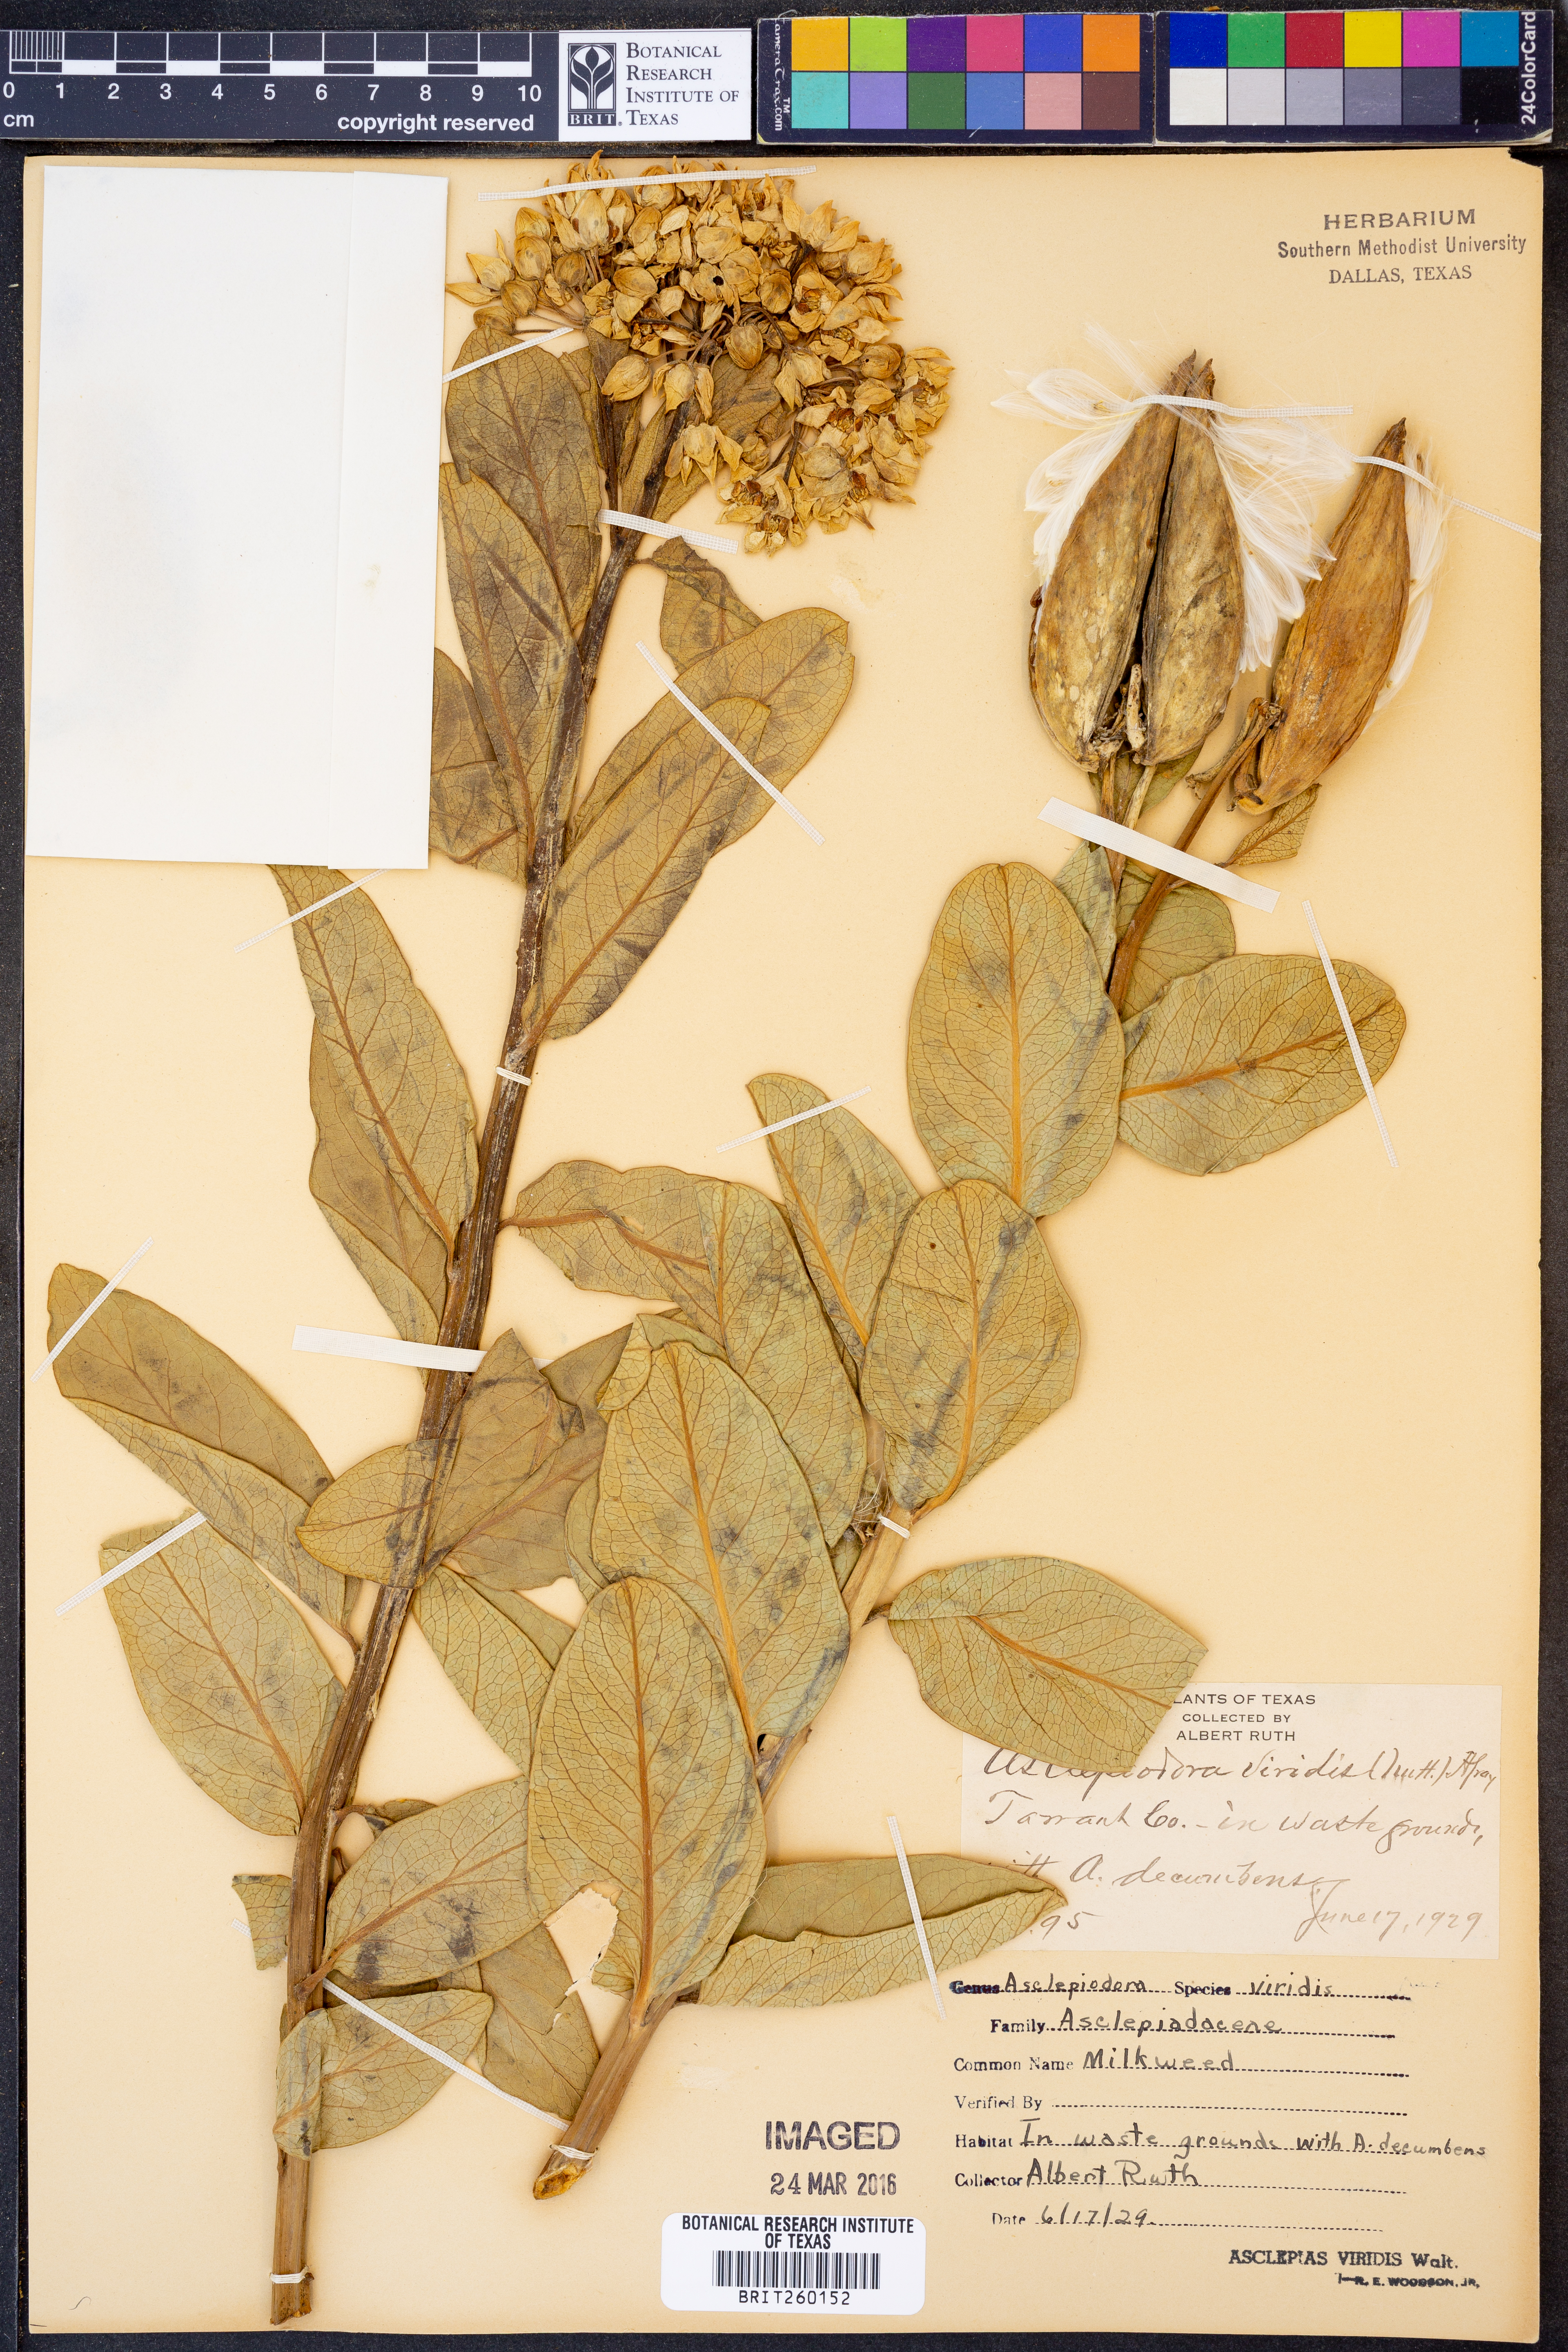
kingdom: Plantae
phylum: Tracheophyta
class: Magnoliopsida
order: Gentianales
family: Apocynaceae
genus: Asclepias
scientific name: Asclepias viridis
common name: Antelope-horns
